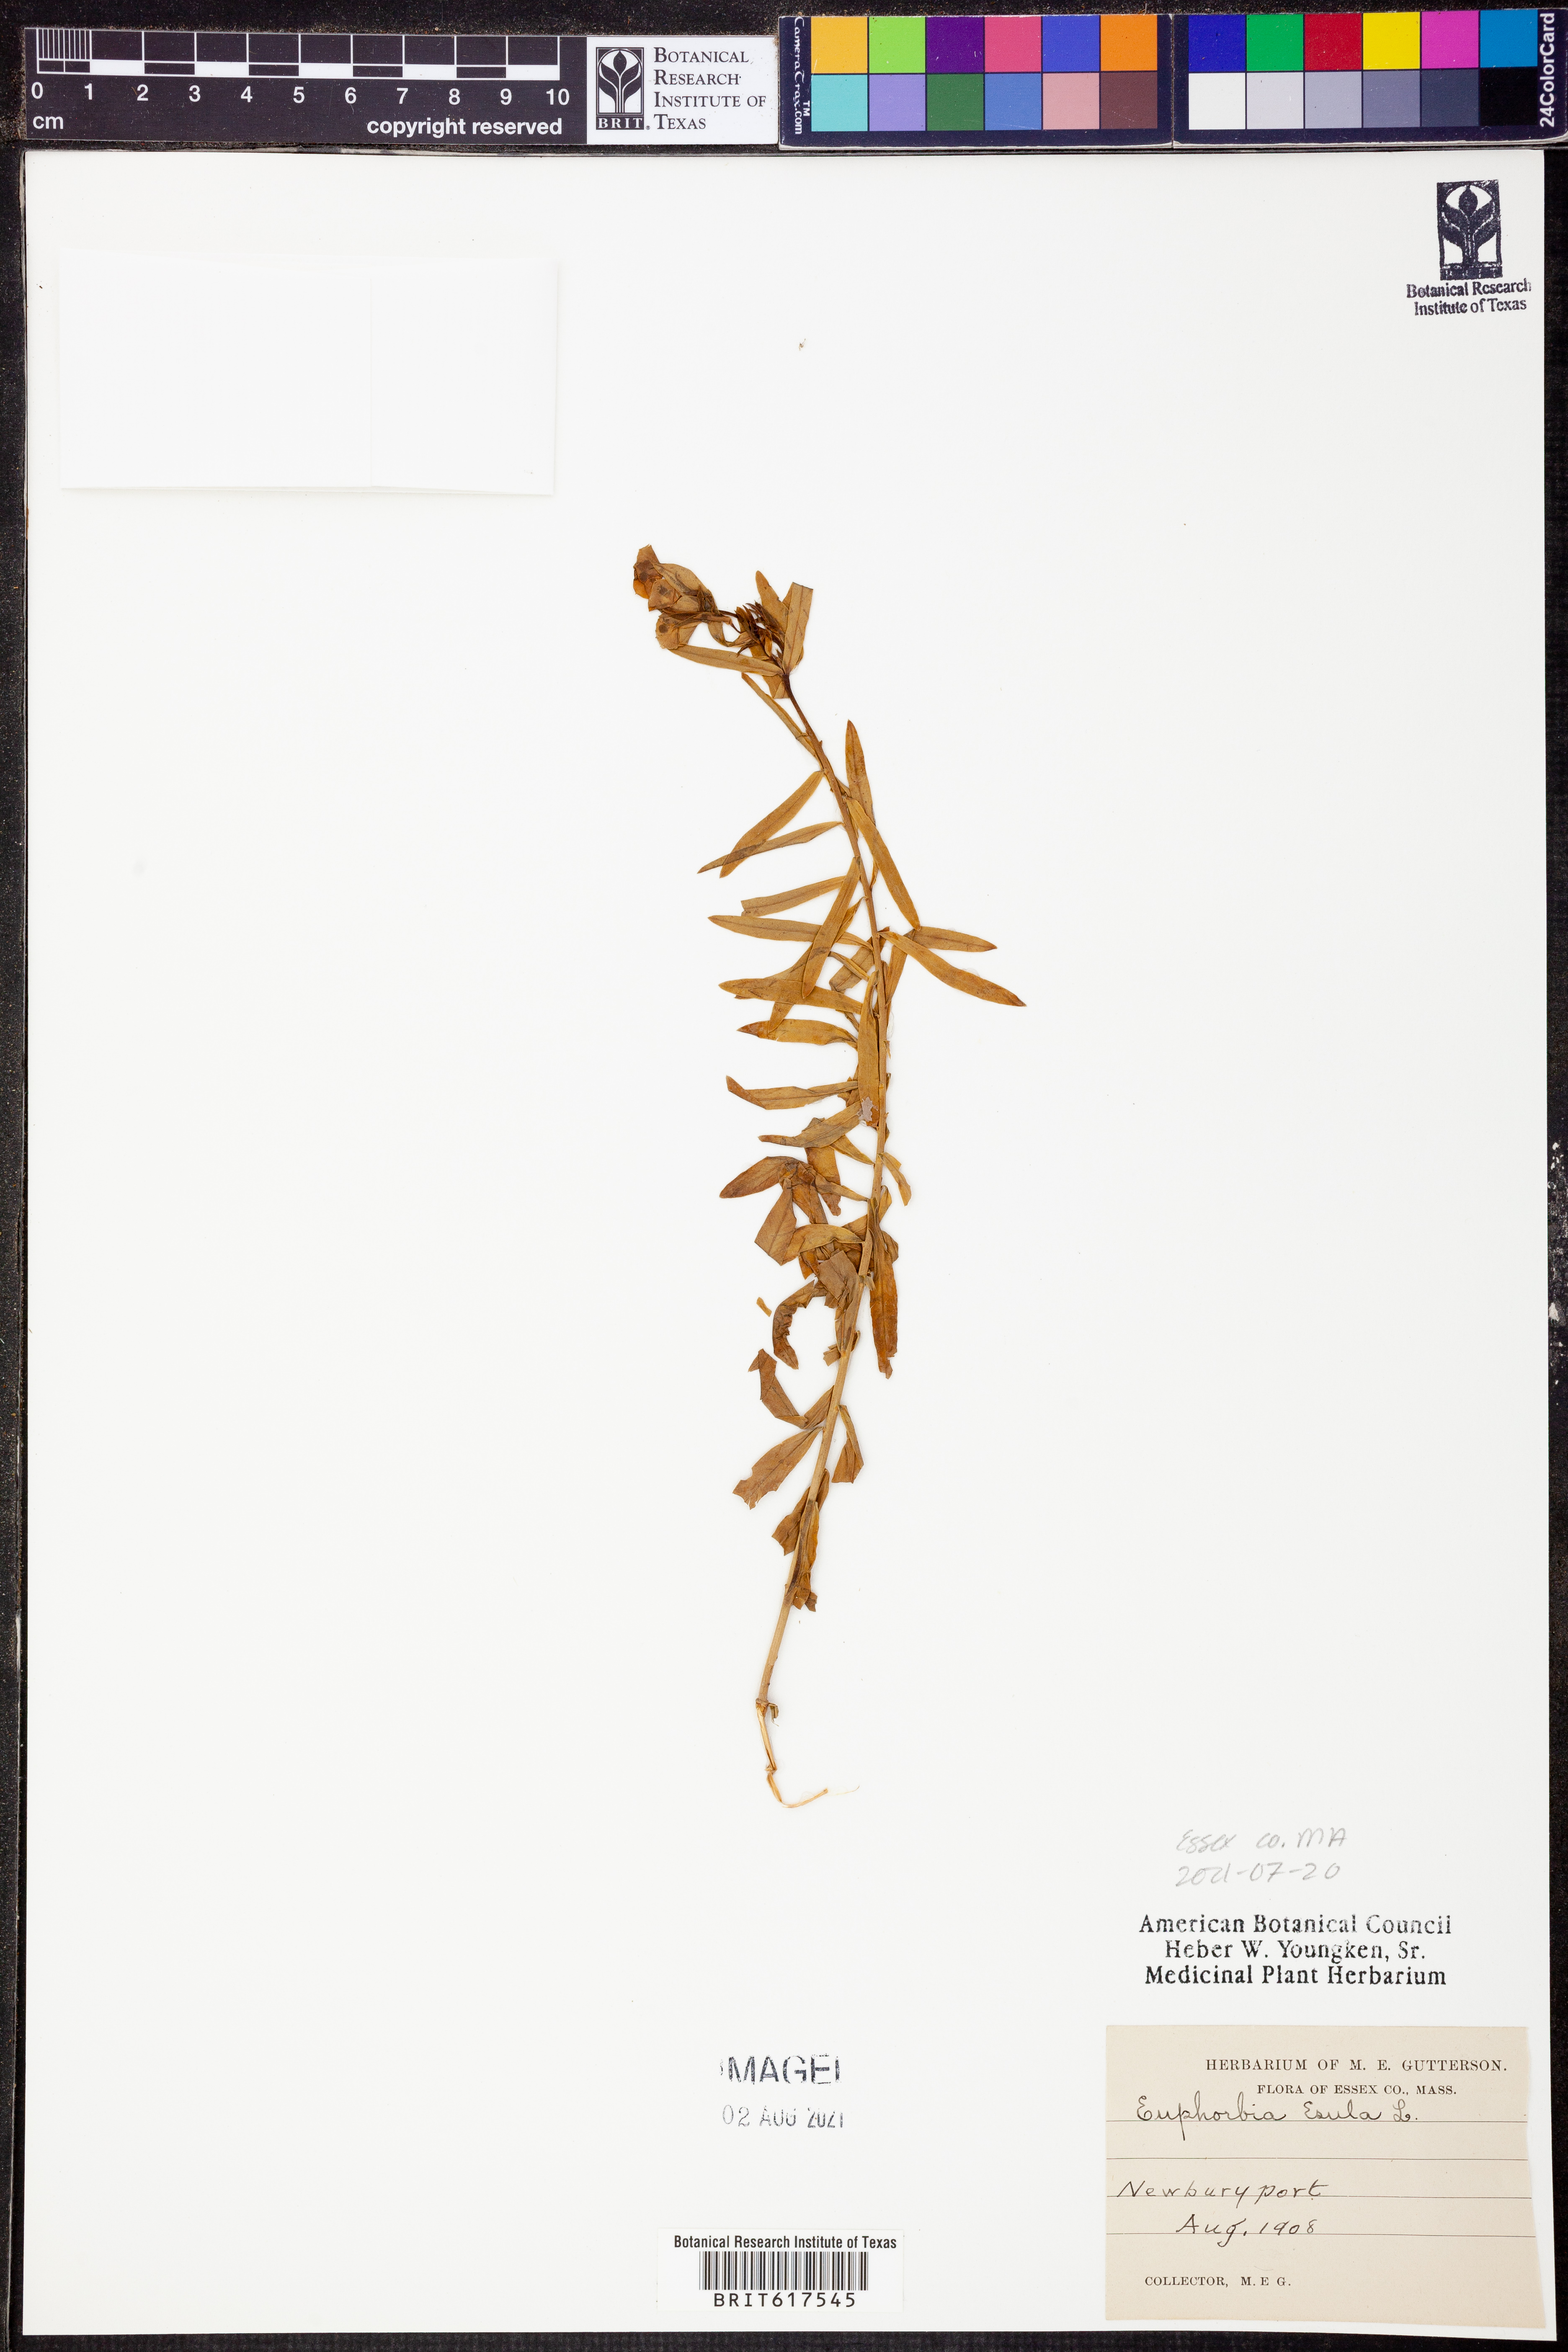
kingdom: Plantae
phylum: Tracheophyta
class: Magnoliopsida
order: Malpighiales
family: Euphorbiaceae
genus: Euphorbia
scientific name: Euphorbia esula
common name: Leafy spurge
